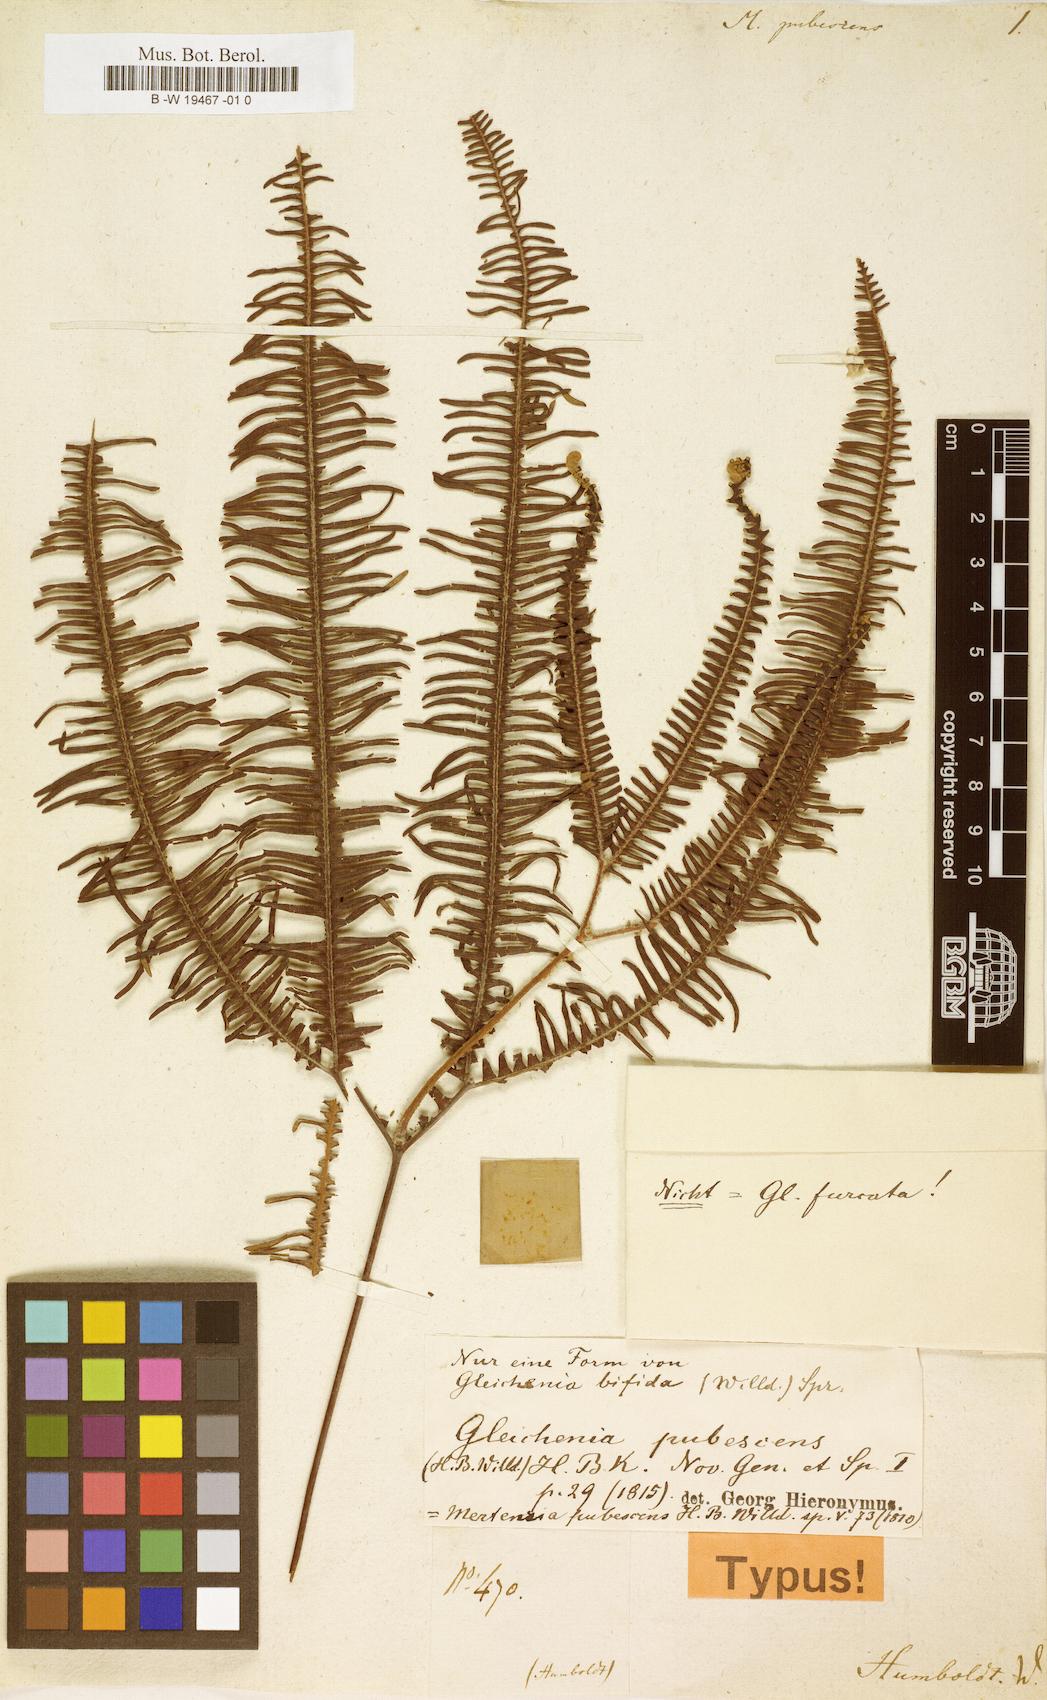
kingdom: Plantae
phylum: Tracheophyta
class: Polypodiopsida
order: Gleicheniales
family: Gleicheniaceae
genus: Sticherus
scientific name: Sticherus bifidus
